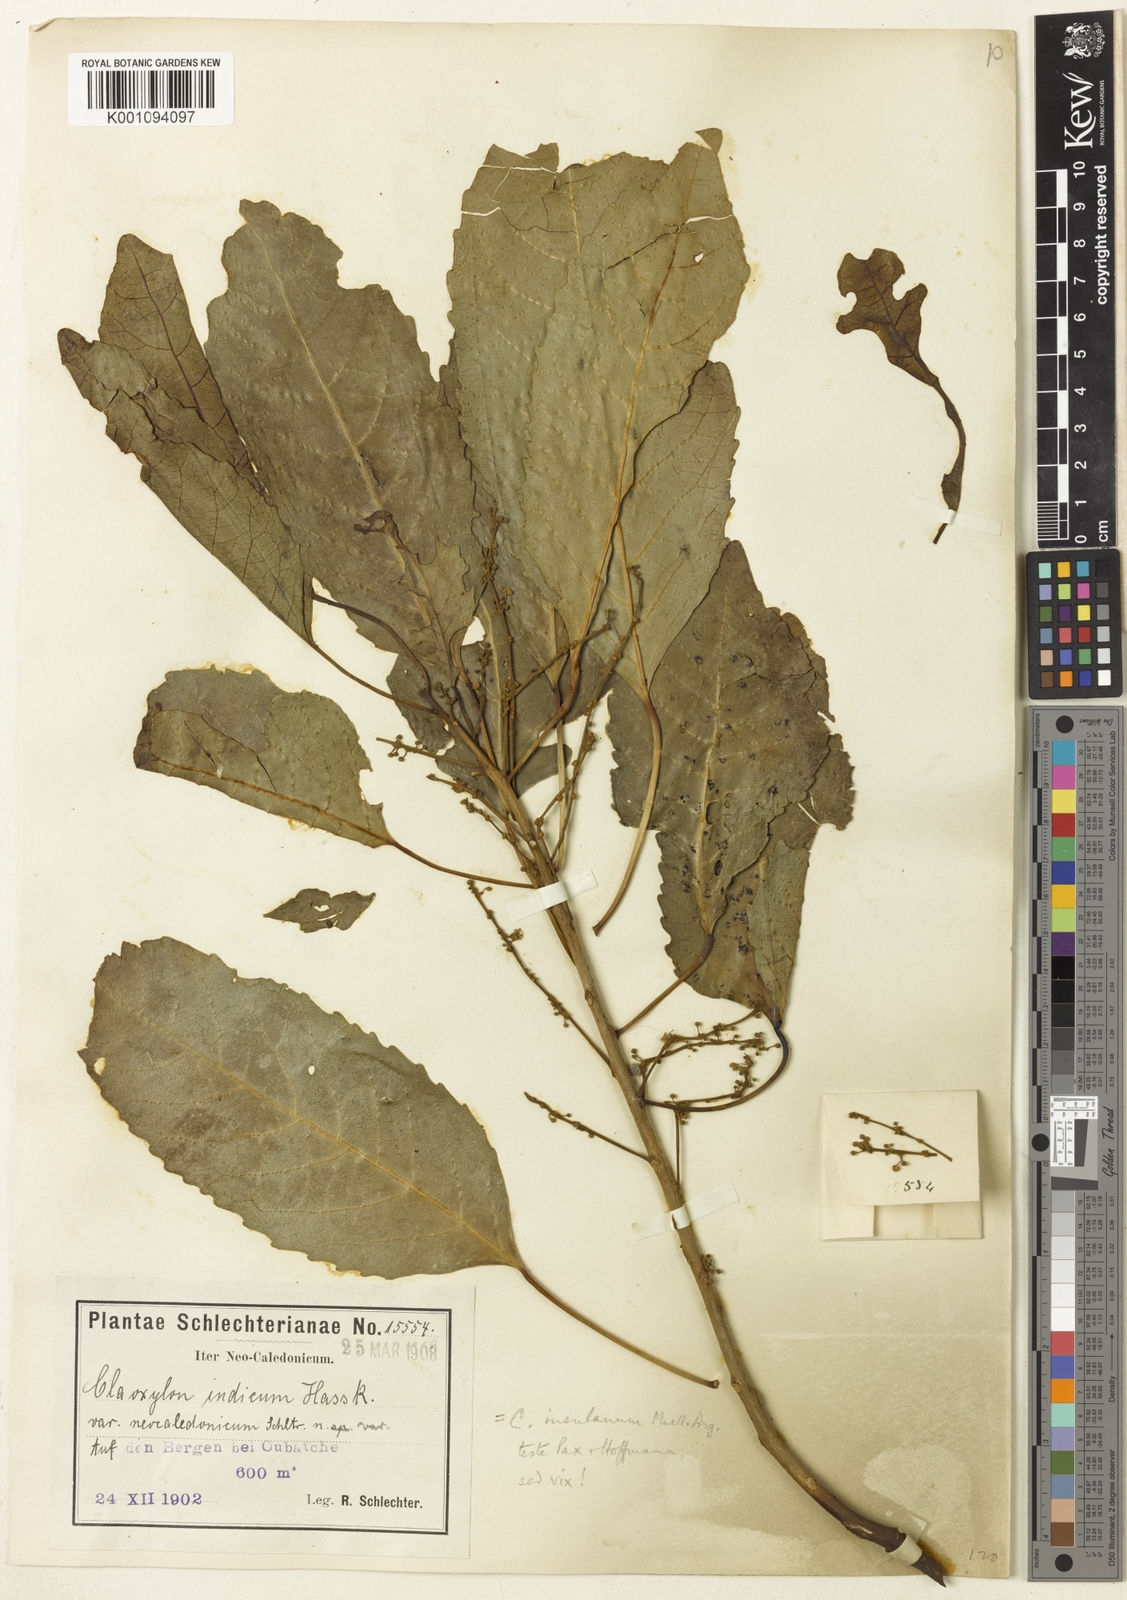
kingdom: Plantae
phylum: Tracheophyta
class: Magnoliopsida
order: Malpighiales
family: Euphorbiaceae
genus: Claoxylon
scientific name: Claoxylon indicum
